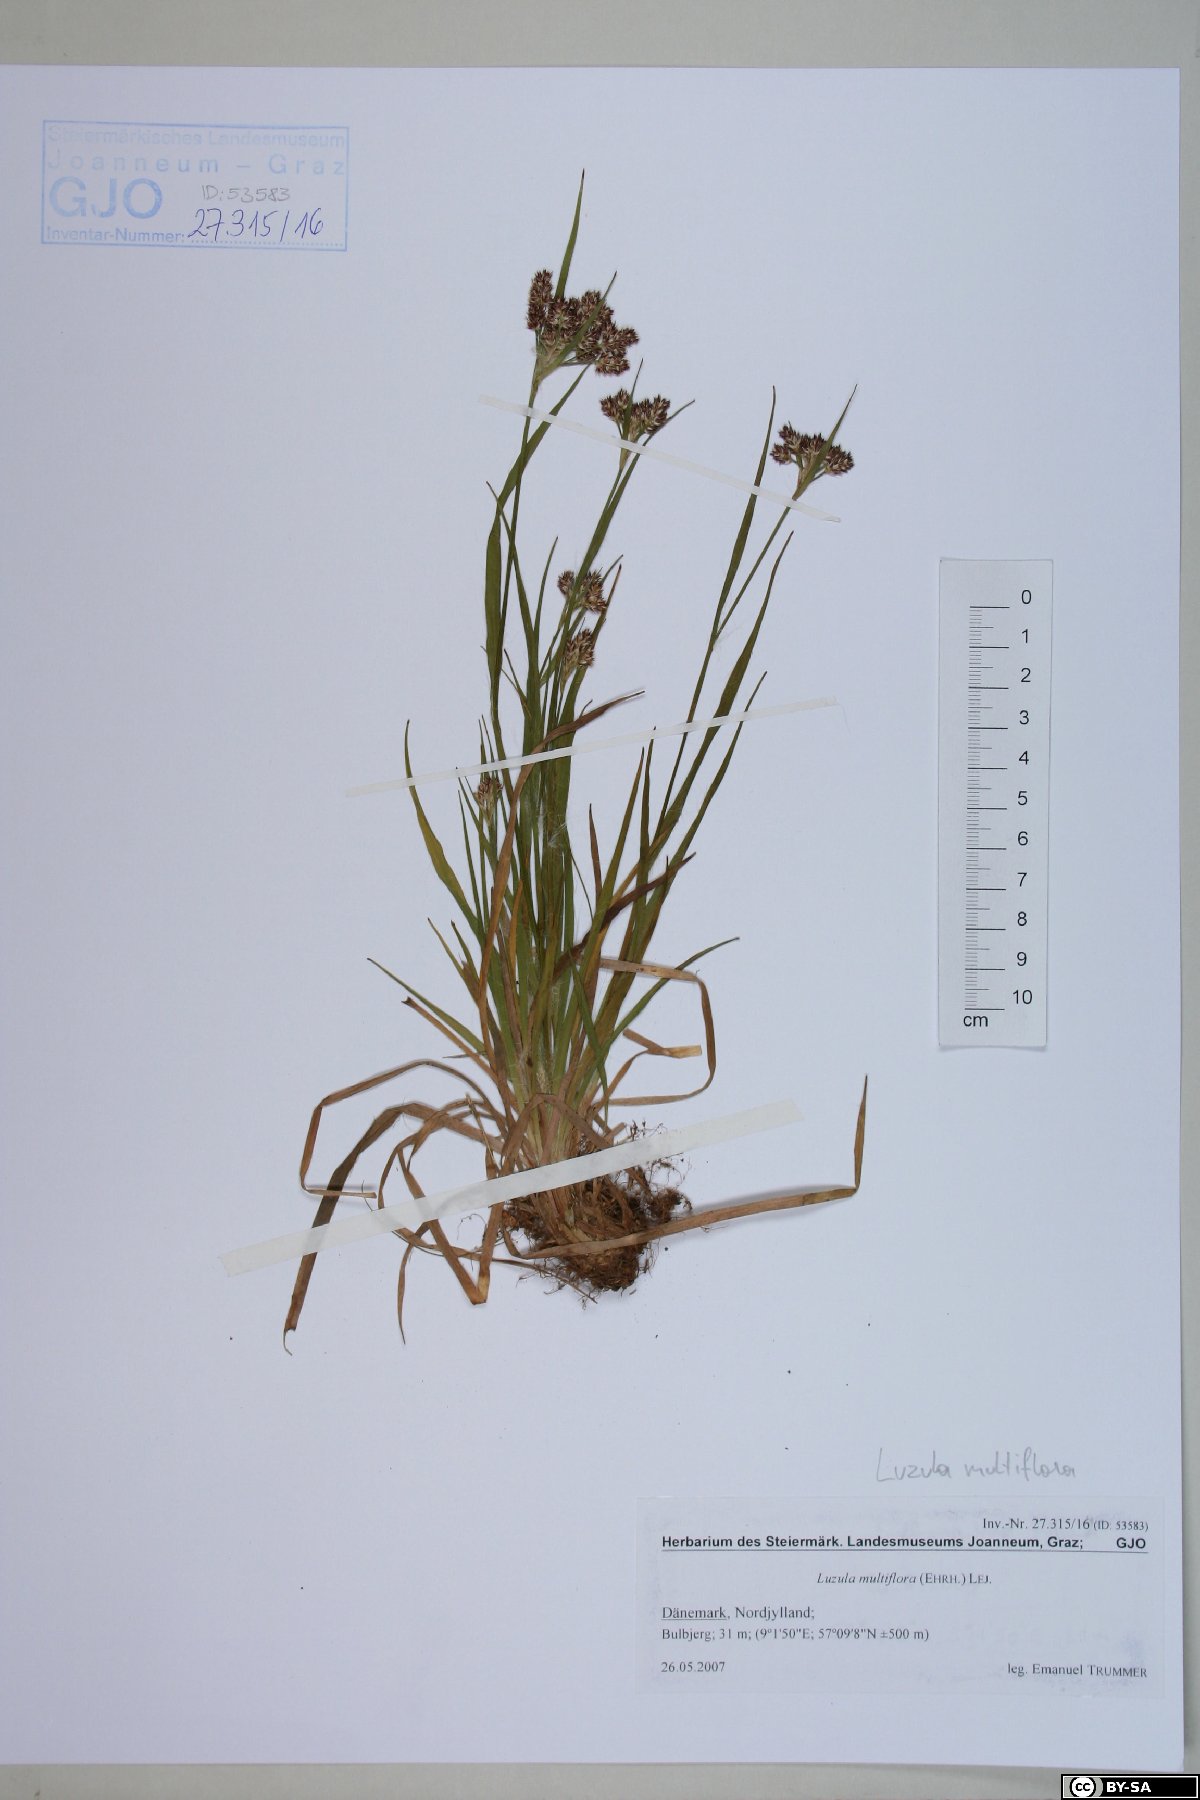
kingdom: Plantae
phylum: Tracheophyta
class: Liliopsida
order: Poales
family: Juncaceae
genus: Luzula
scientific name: Luzula multiflora
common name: Heath wood-rush
